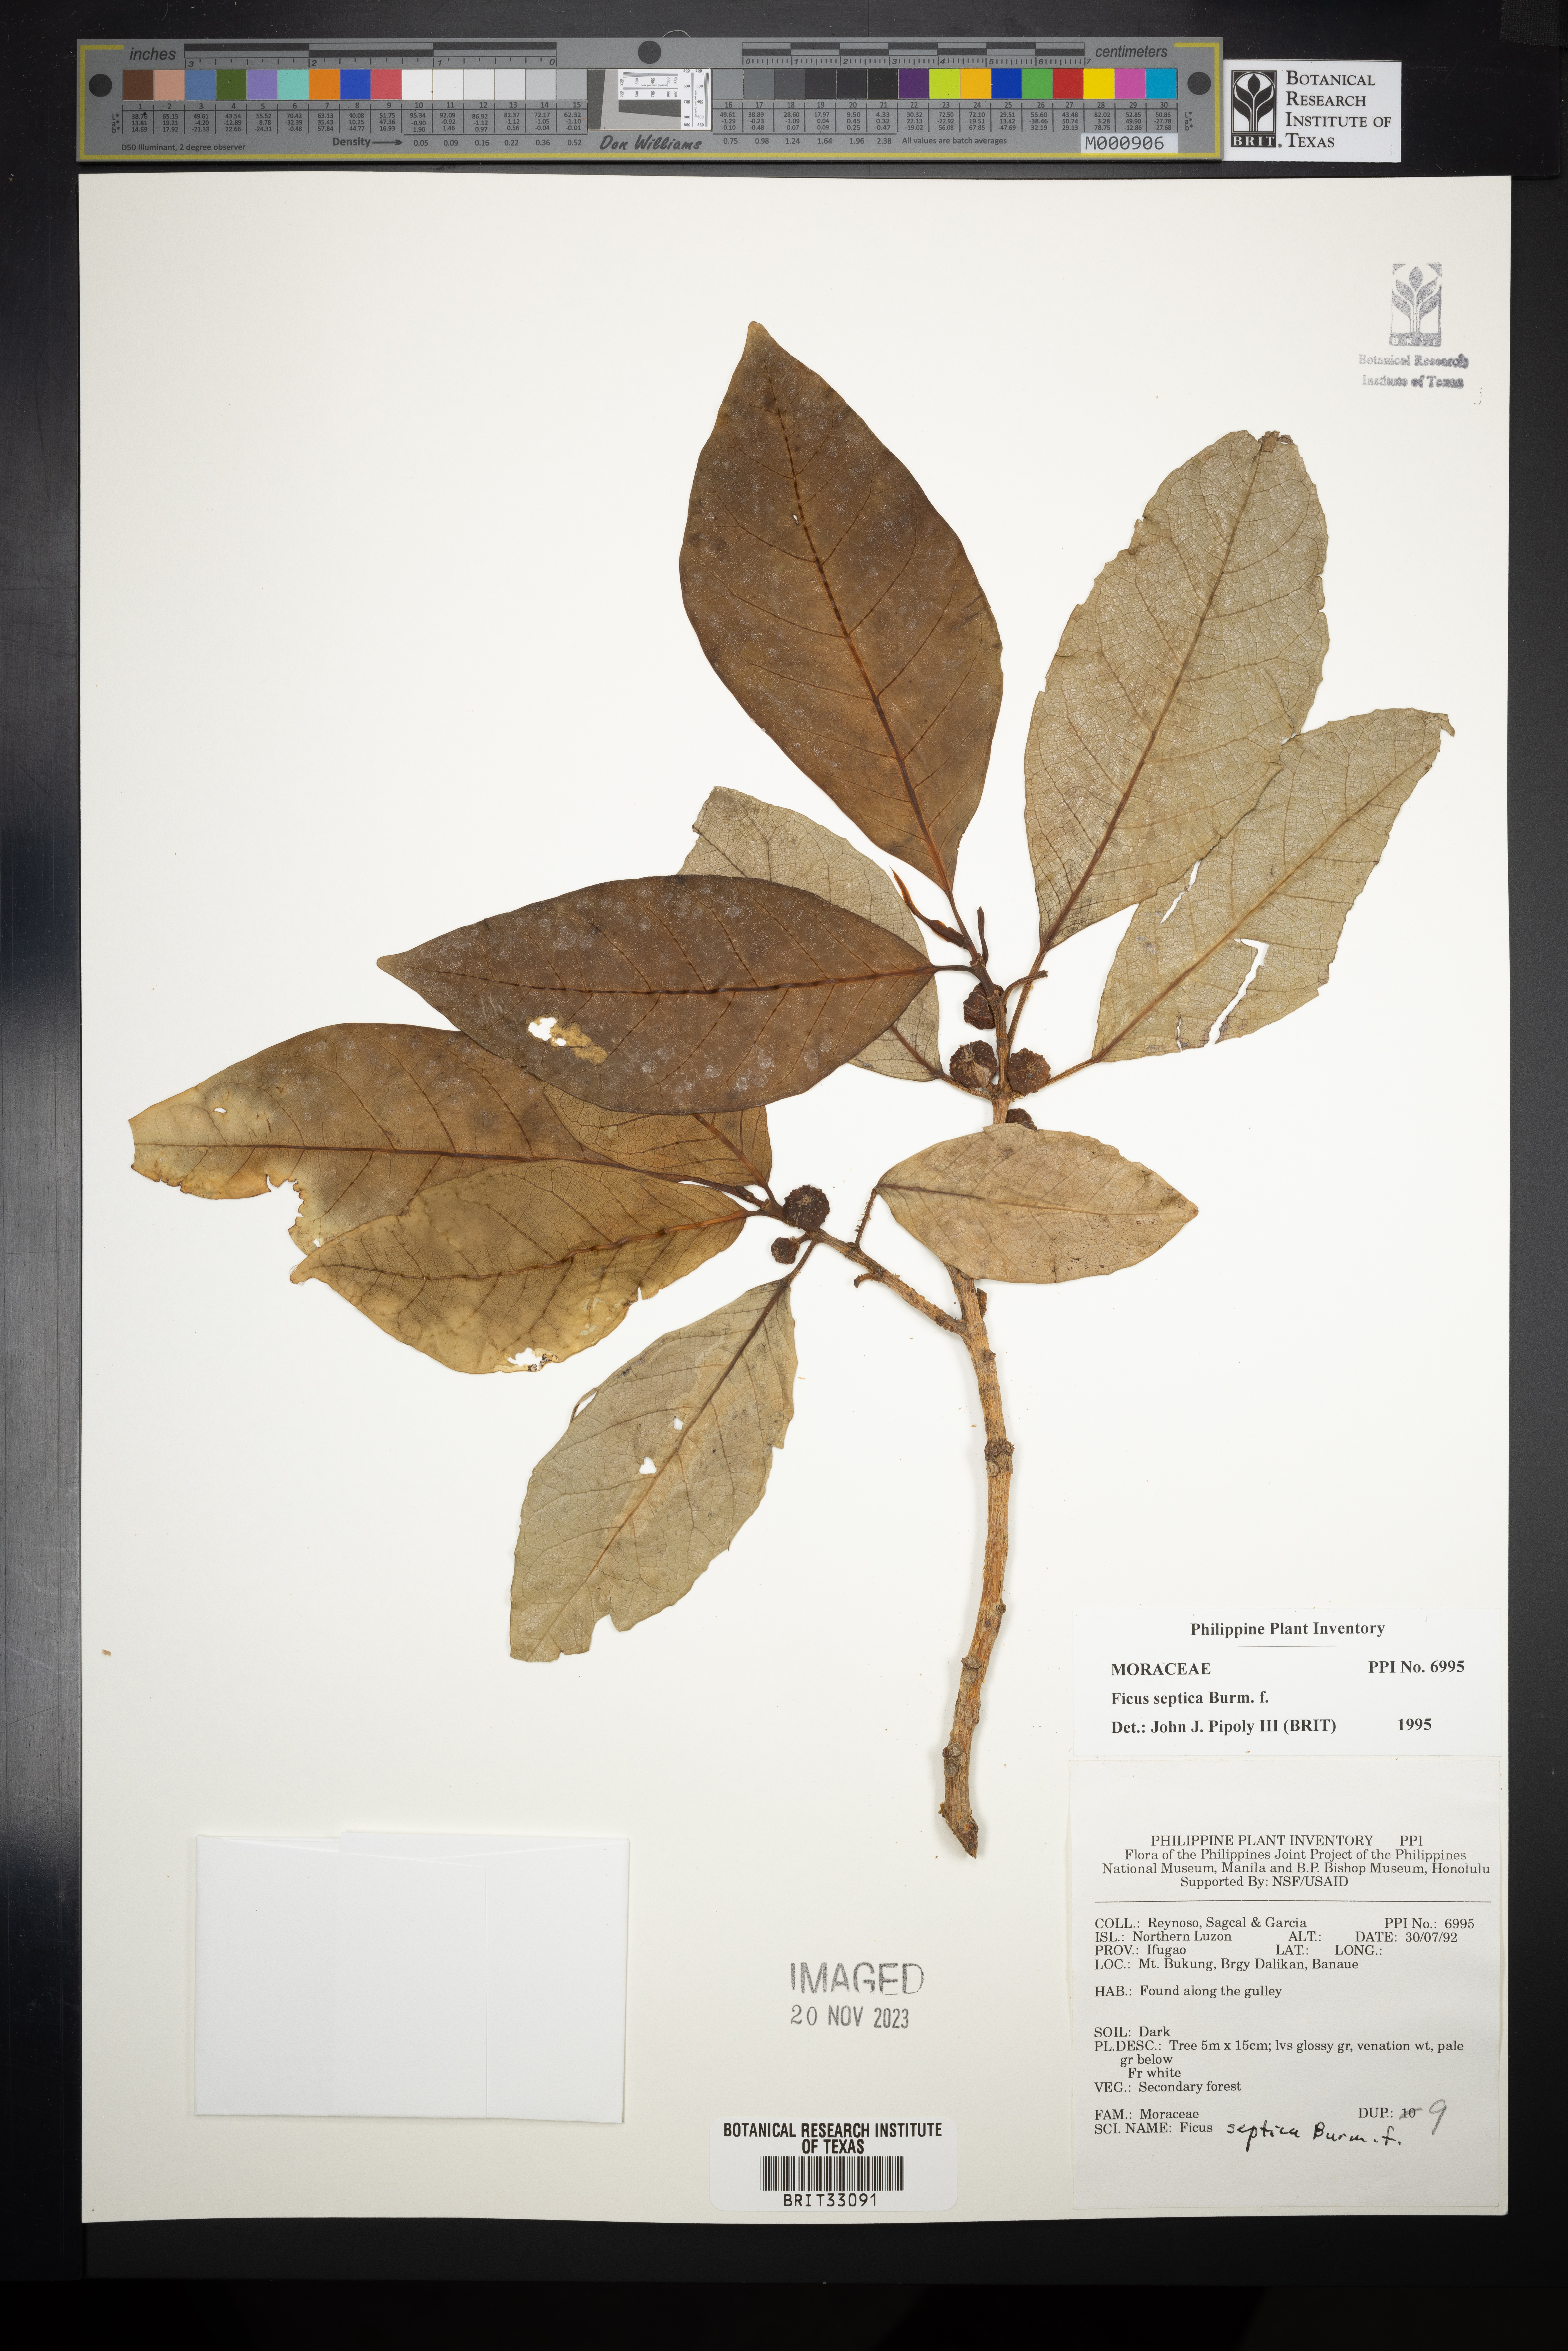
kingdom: Plantae
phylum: Tracheophyta
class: Magnoliopsida
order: Rosales
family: Moraceae
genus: Ficus
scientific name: Ficus septica
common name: Septic fig
